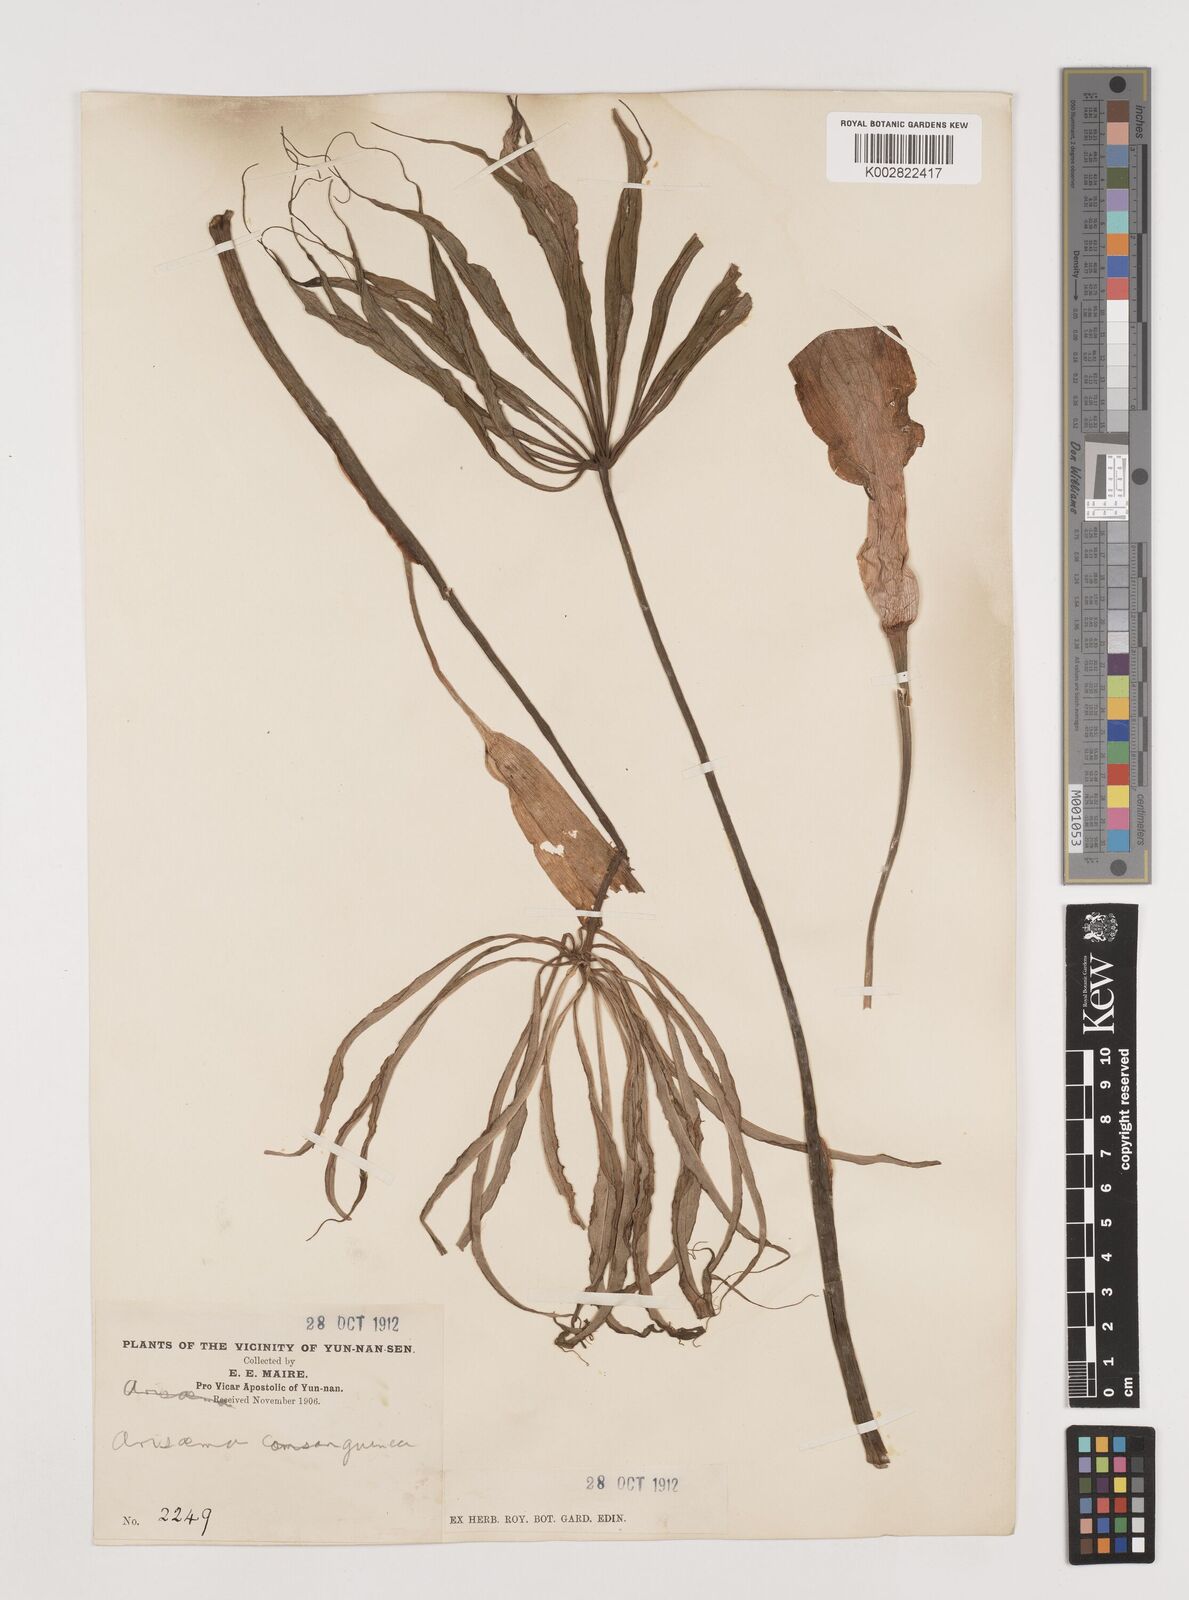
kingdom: Plantae
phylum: Tracheophyta
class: Liliopsida
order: Alismatales
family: Araceae
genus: Arisaema
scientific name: Arisaema erubescens
